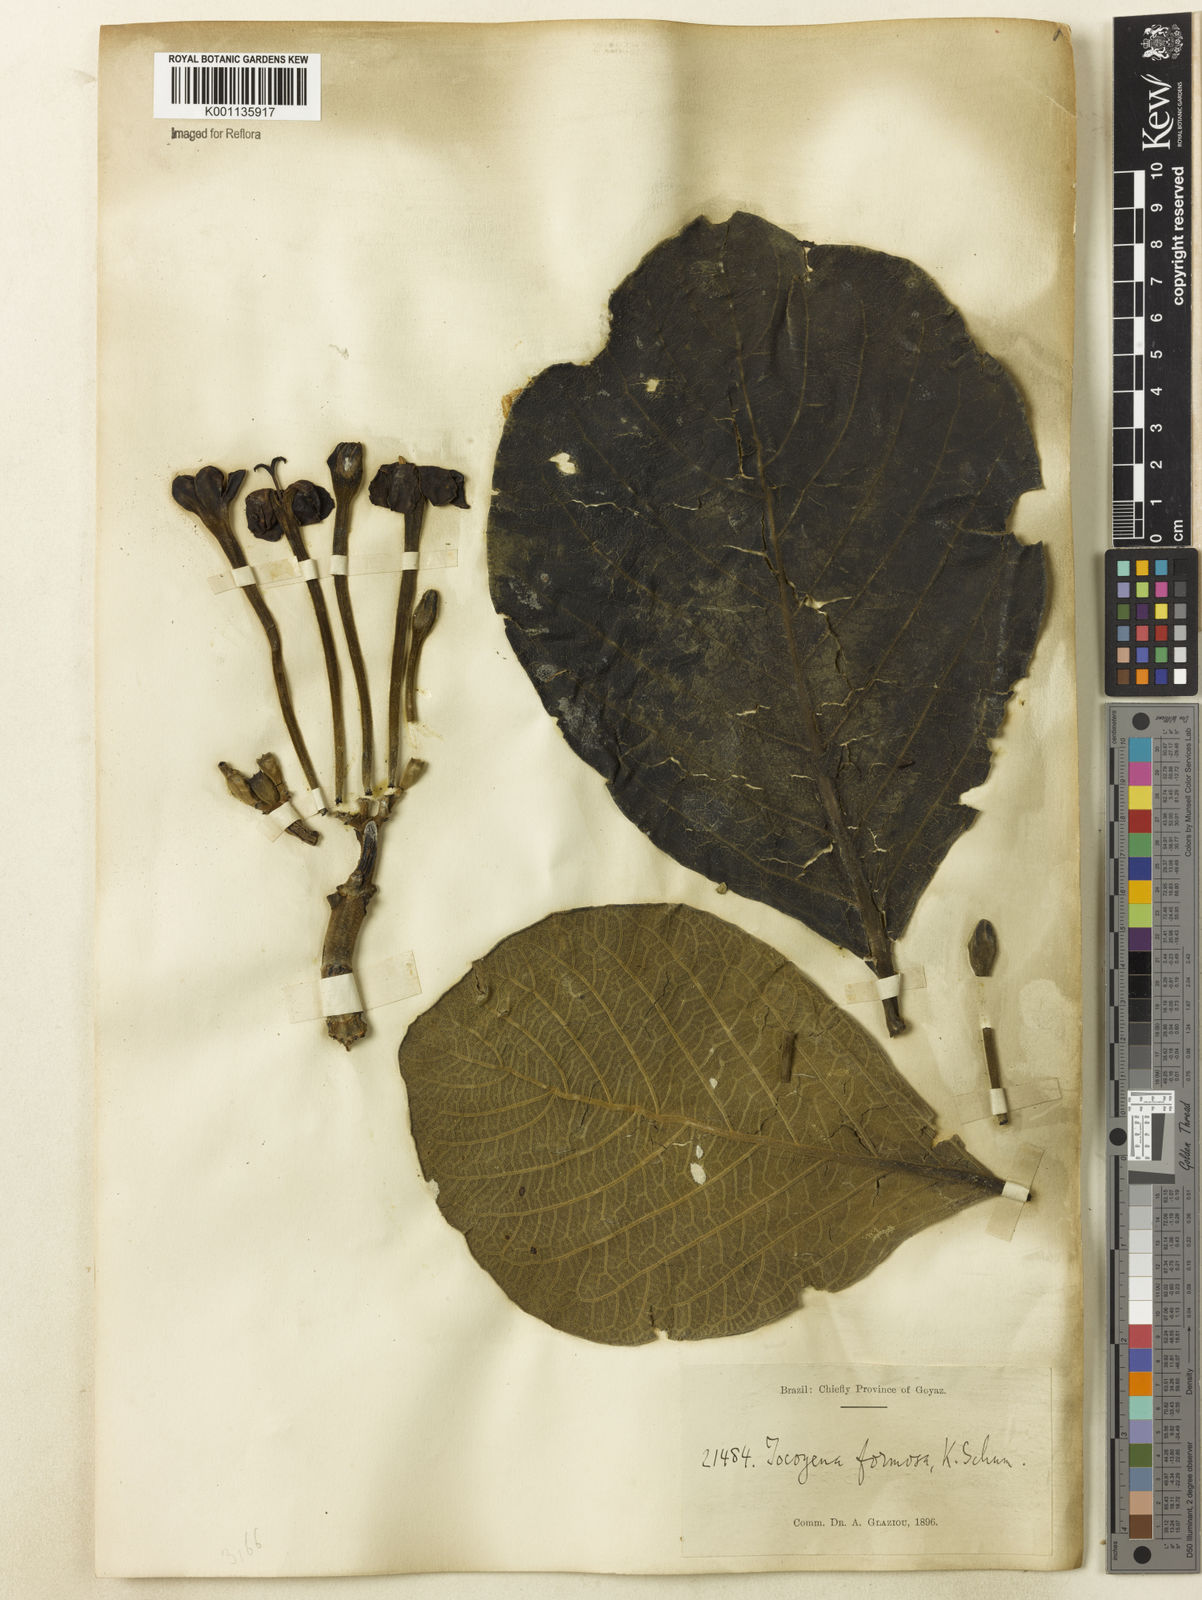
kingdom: Plantae
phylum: Tracheophyta
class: Magnoliopsida
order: Gentianales
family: Rubiaceae
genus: Tocoyena
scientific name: Tocoyena formosa
